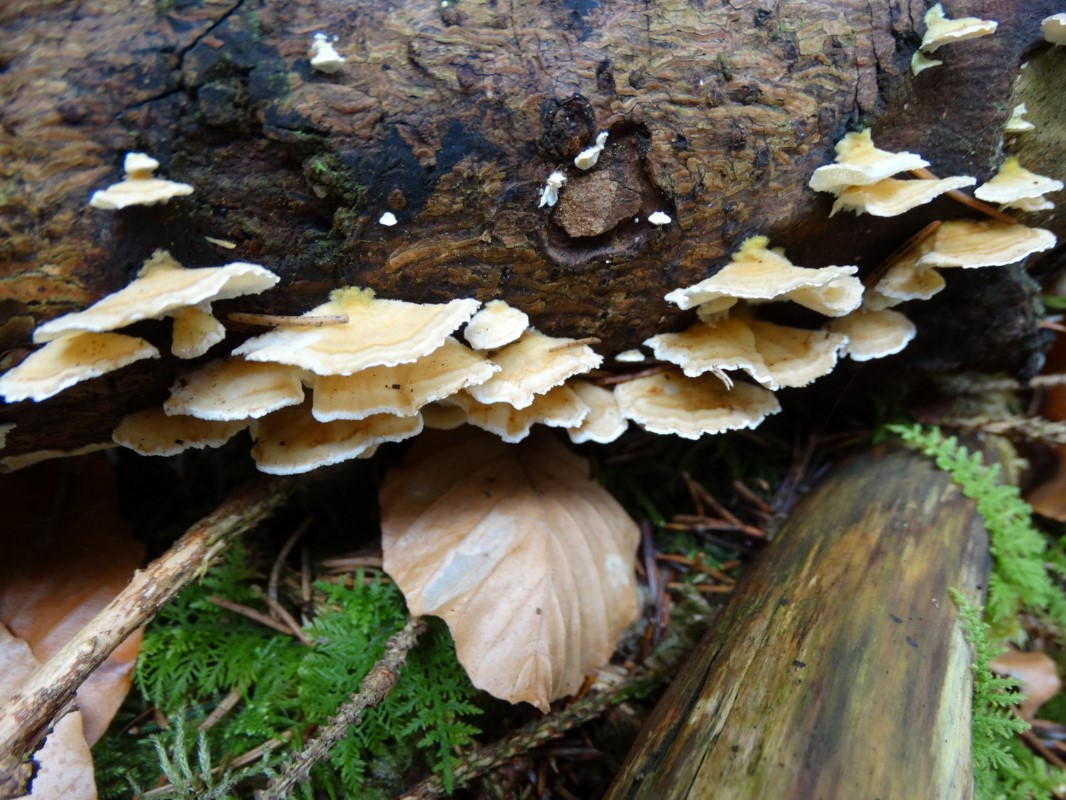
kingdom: Fungi
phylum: Basidiomycota
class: Agaricomycetes
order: Polyporales
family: Polyporaceae
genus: Trametes
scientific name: Trametes versicolor
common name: broget læderporesvamp
